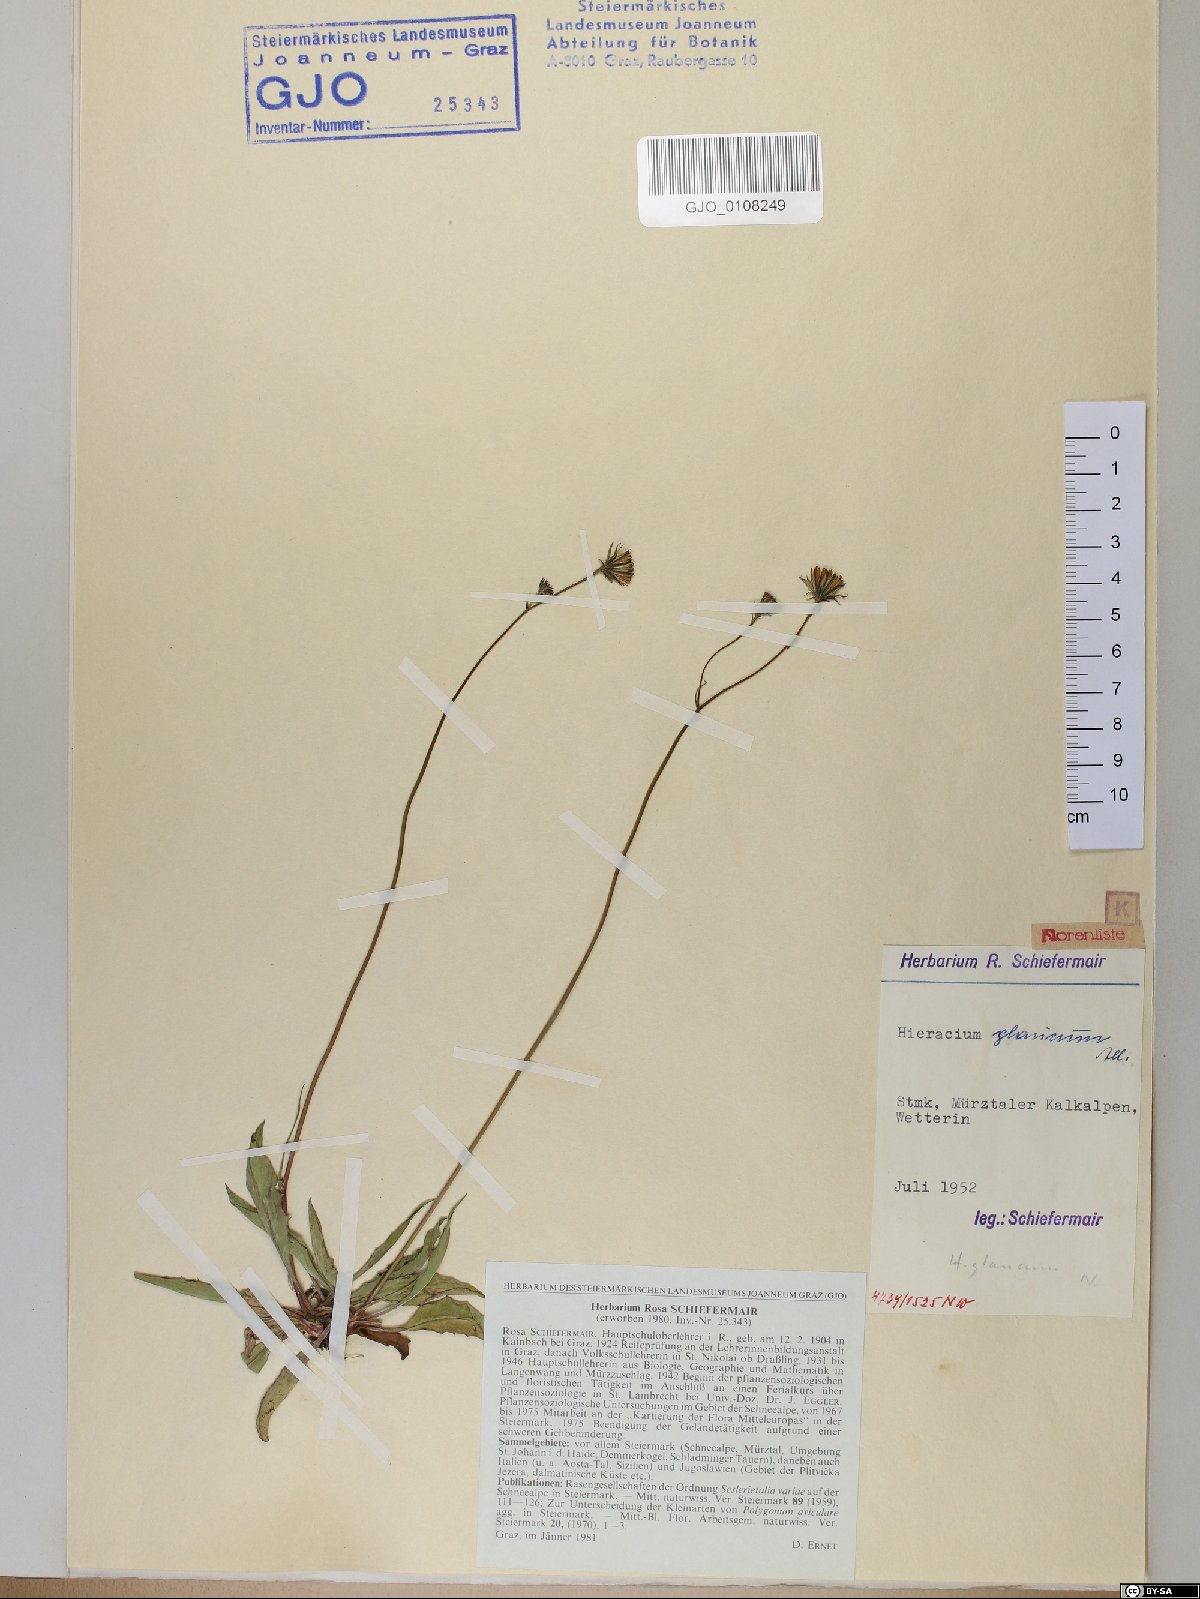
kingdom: Plantae
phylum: Tracheophyta
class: Magnoliopsida
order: Asterales
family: Asteraceae
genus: Hieracium
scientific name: Hieracium glaucum
